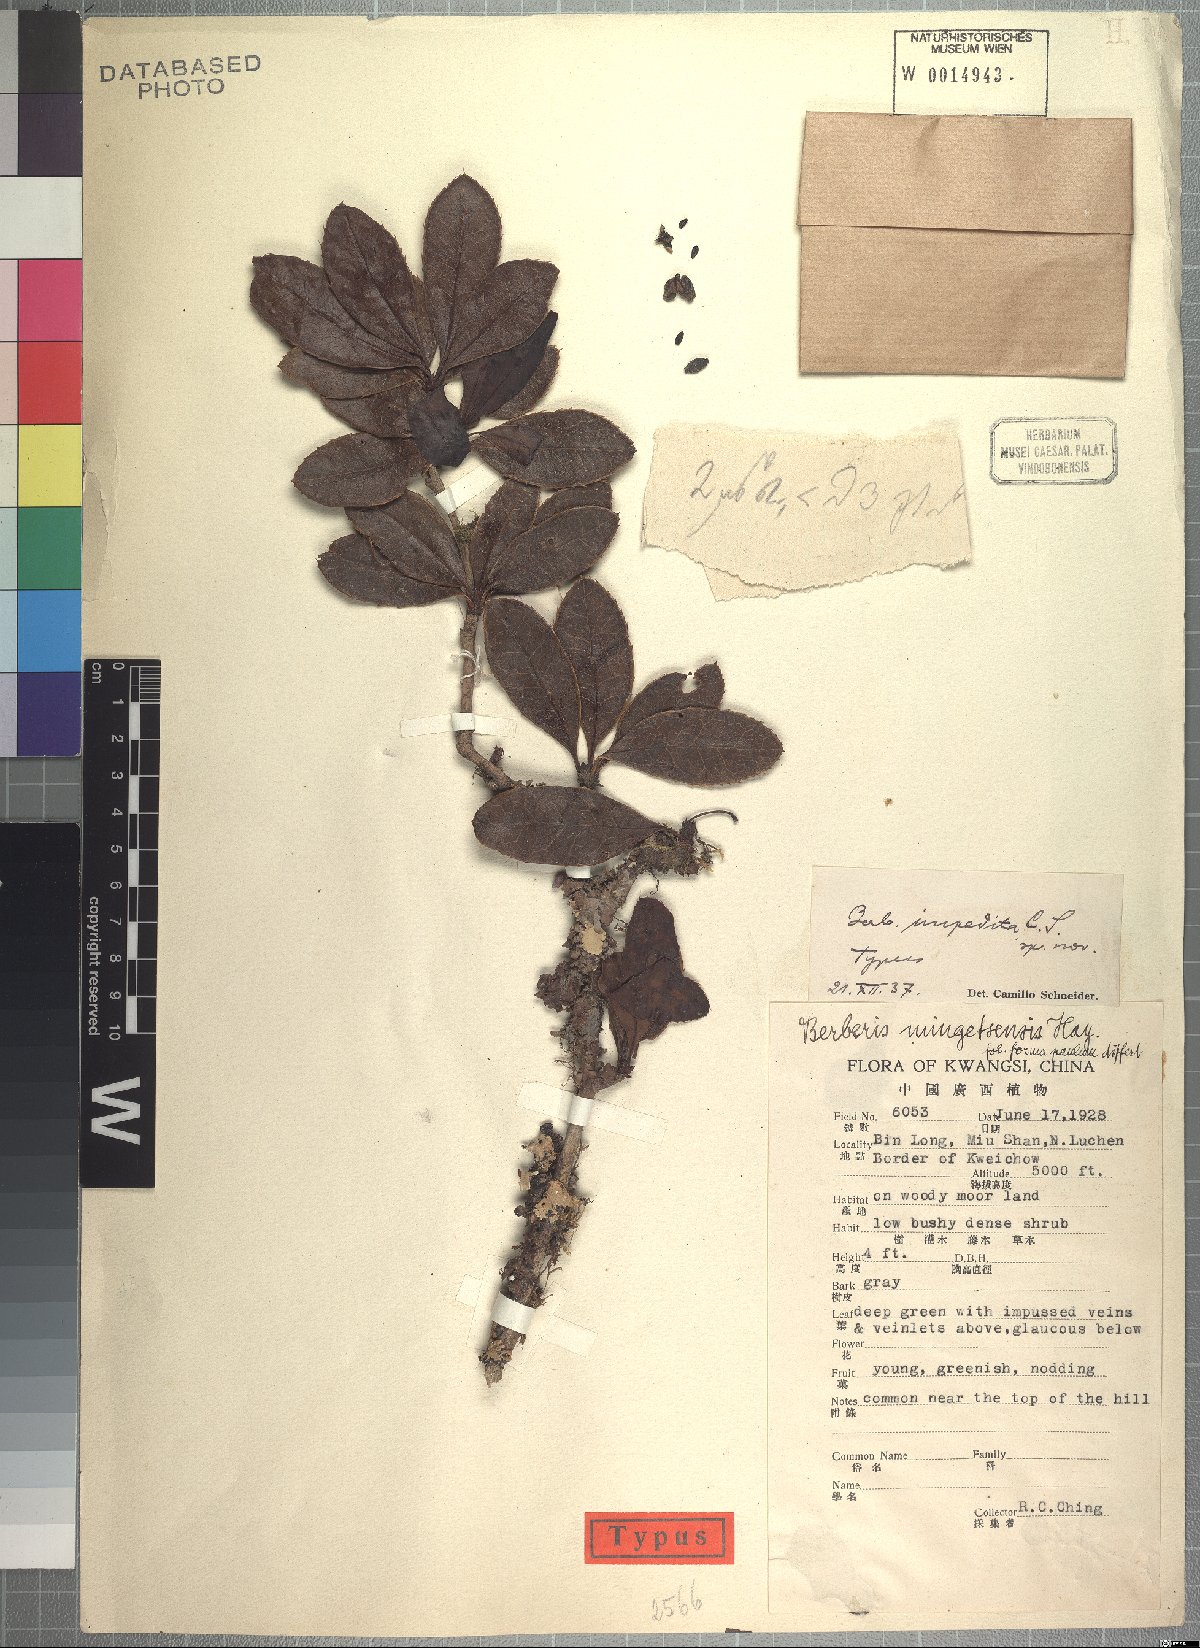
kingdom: Plantae
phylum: Tracheophyta
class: Magnoliopsida
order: Ranunculales
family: Berberidaceae
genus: Berberis
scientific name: Berberis impedita
